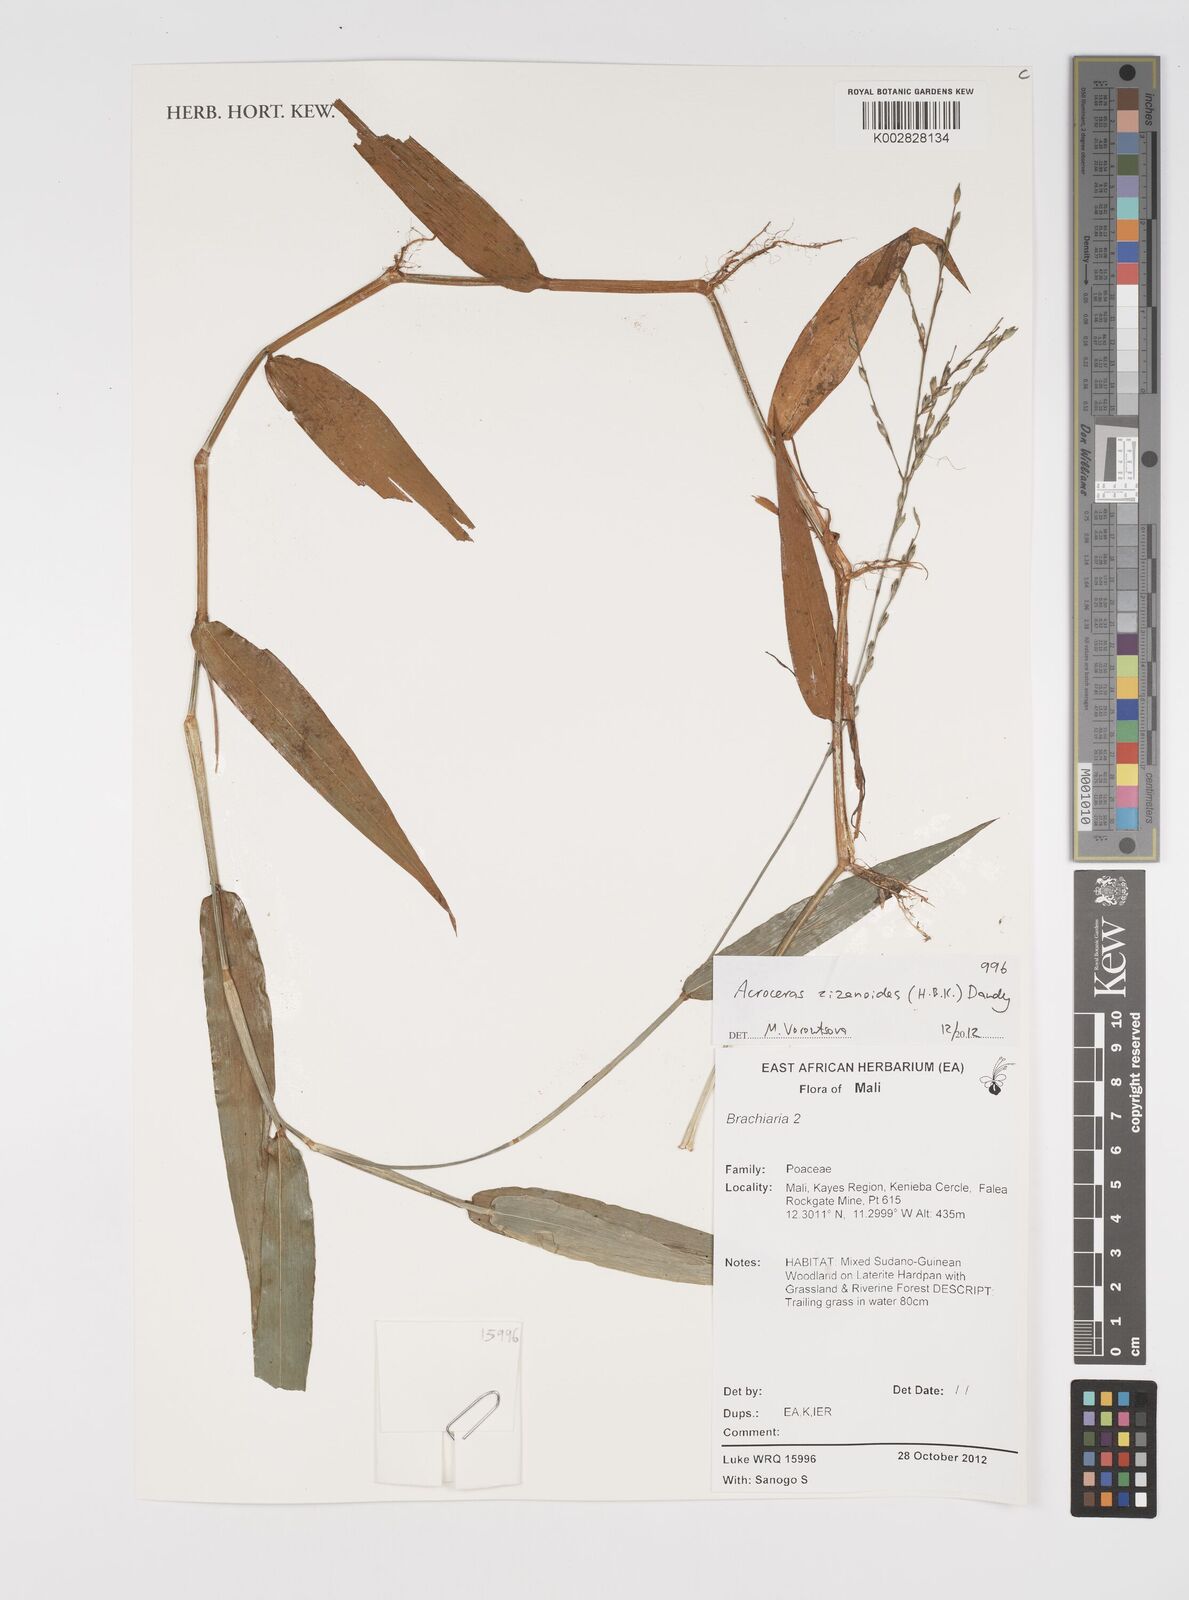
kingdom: Plantae
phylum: Tracheophyta
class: Liliopsida
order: Poales
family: Poaceae
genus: Acroceras
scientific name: Acroceras zizanioides
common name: Oat grass
